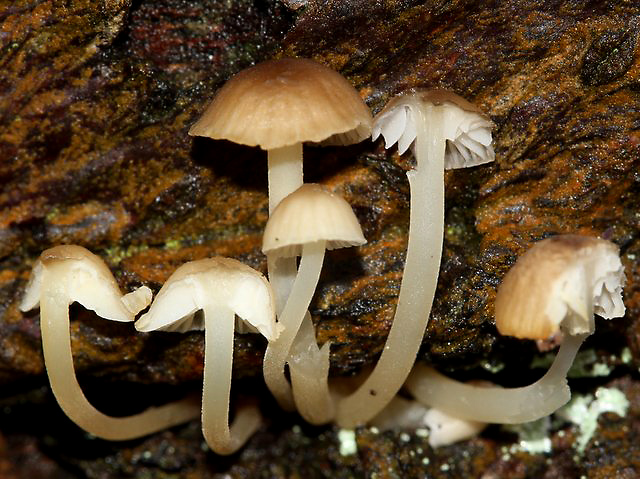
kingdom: Fungi
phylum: Basidiomycota
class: Agaricomycetes
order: Agaricales
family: Porotheleaceae
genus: Phloeomana
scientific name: Phloeomana speirea
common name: kvist-huesvamp
